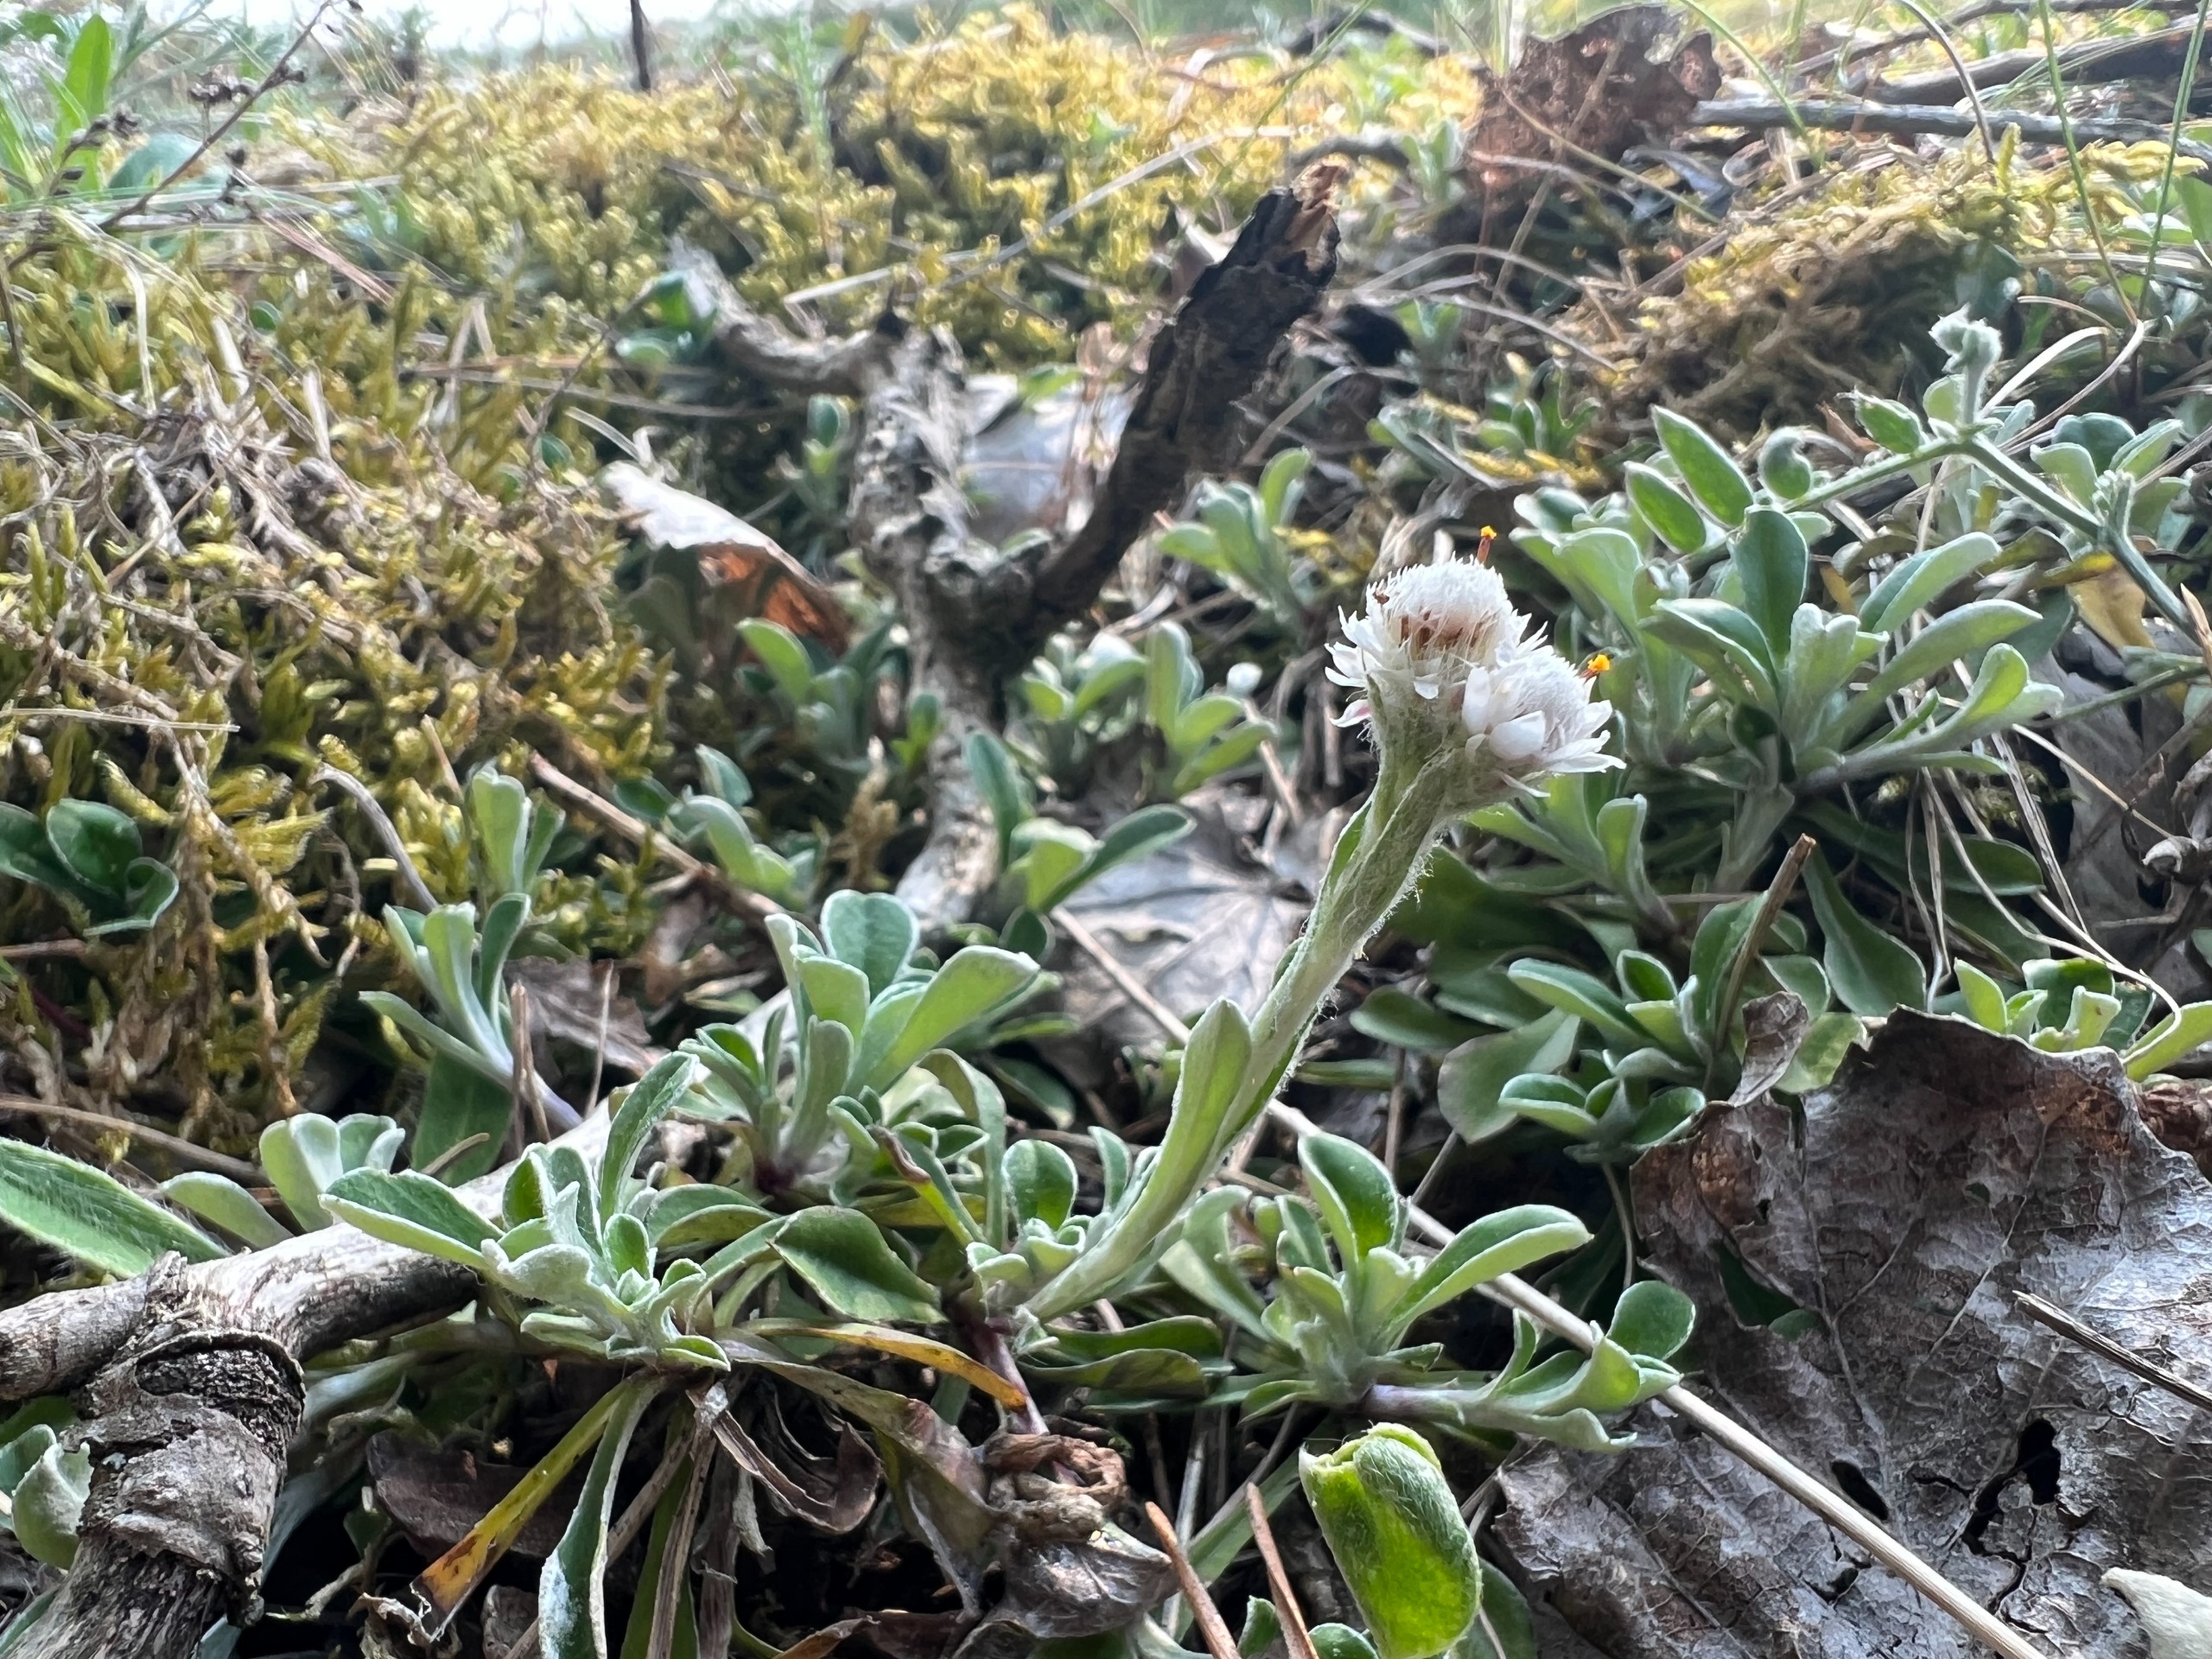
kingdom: Plantae
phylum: Tracheophyta
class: Magnoliopsida
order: Asterales
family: Asteraceae
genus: Antennaria
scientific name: Antennaria dioica
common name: Kattefod
